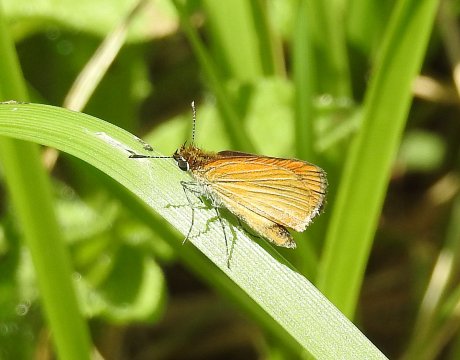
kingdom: Animalia
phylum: Arthropoda
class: Insecta
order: Lepidoptera
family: Hesperiidae
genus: Thymelicus
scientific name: Thymelicus lineola
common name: European Skipper
